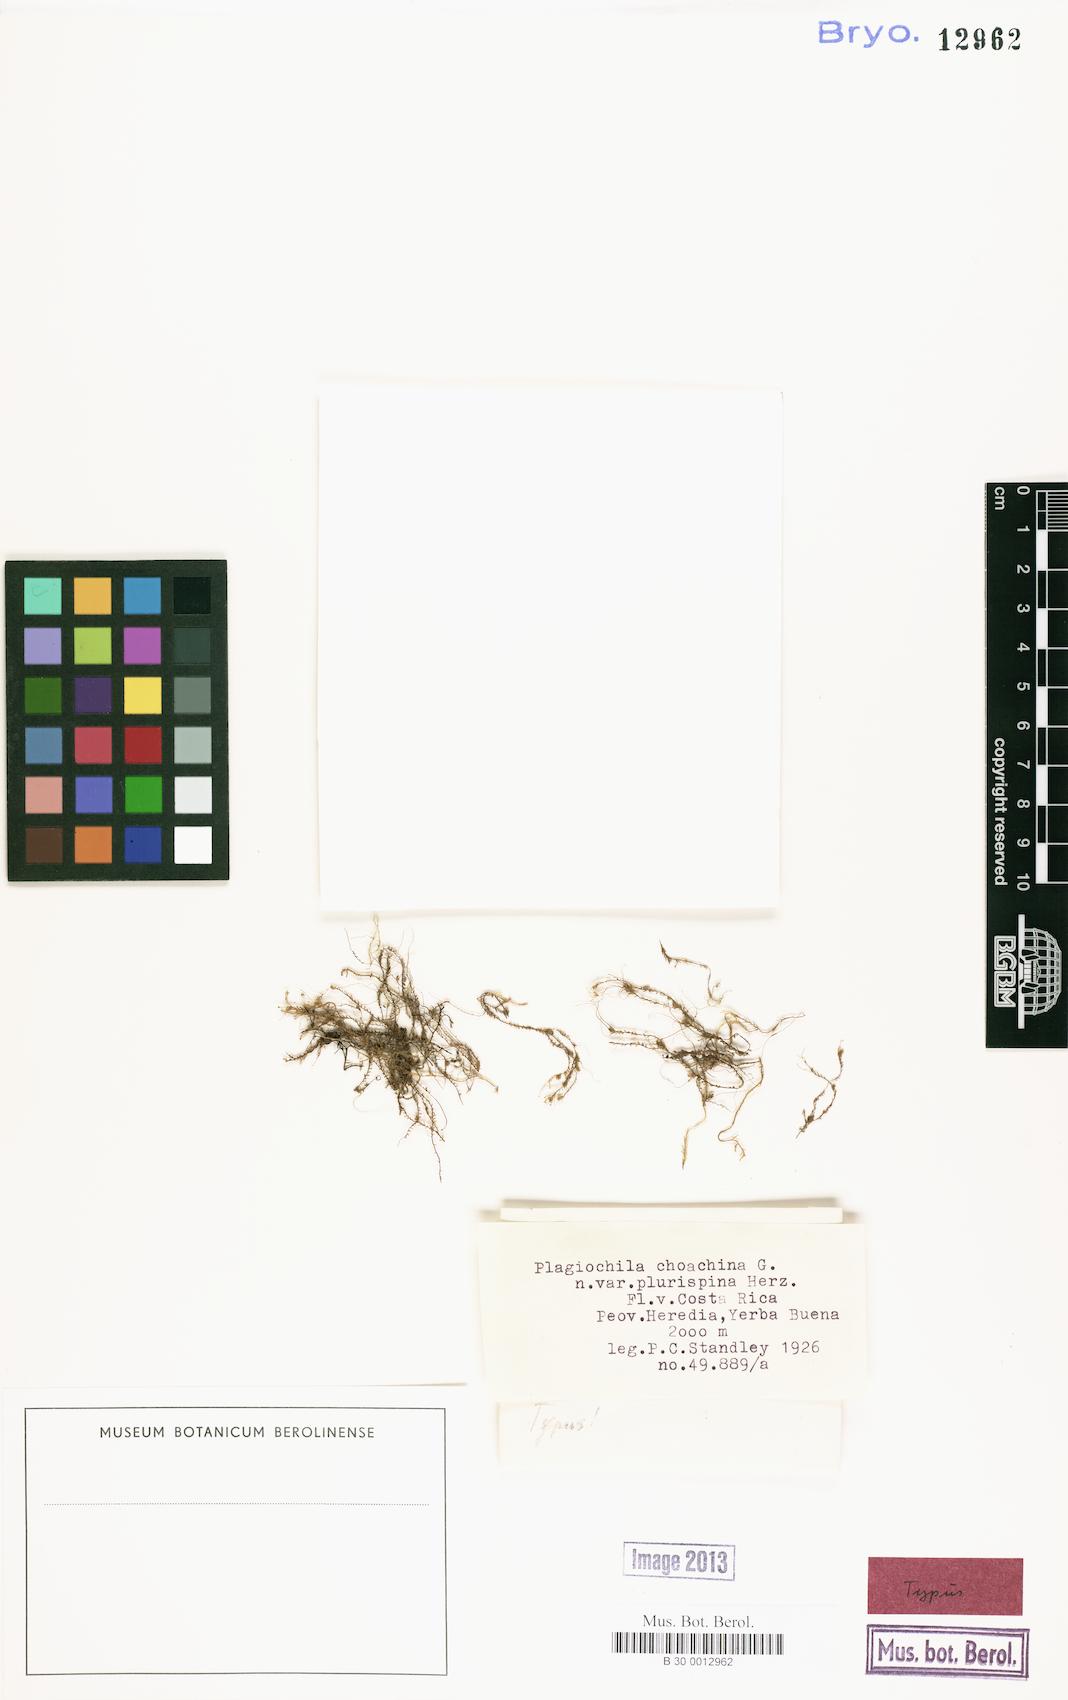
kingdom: Plantae
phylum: Marchantiophyta
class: Jungermanniopsida
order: Jungermanniales
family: Plagiochilaceae
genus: Plagiochila
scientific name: Plagiochila punctata
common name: Spotty featherwort
